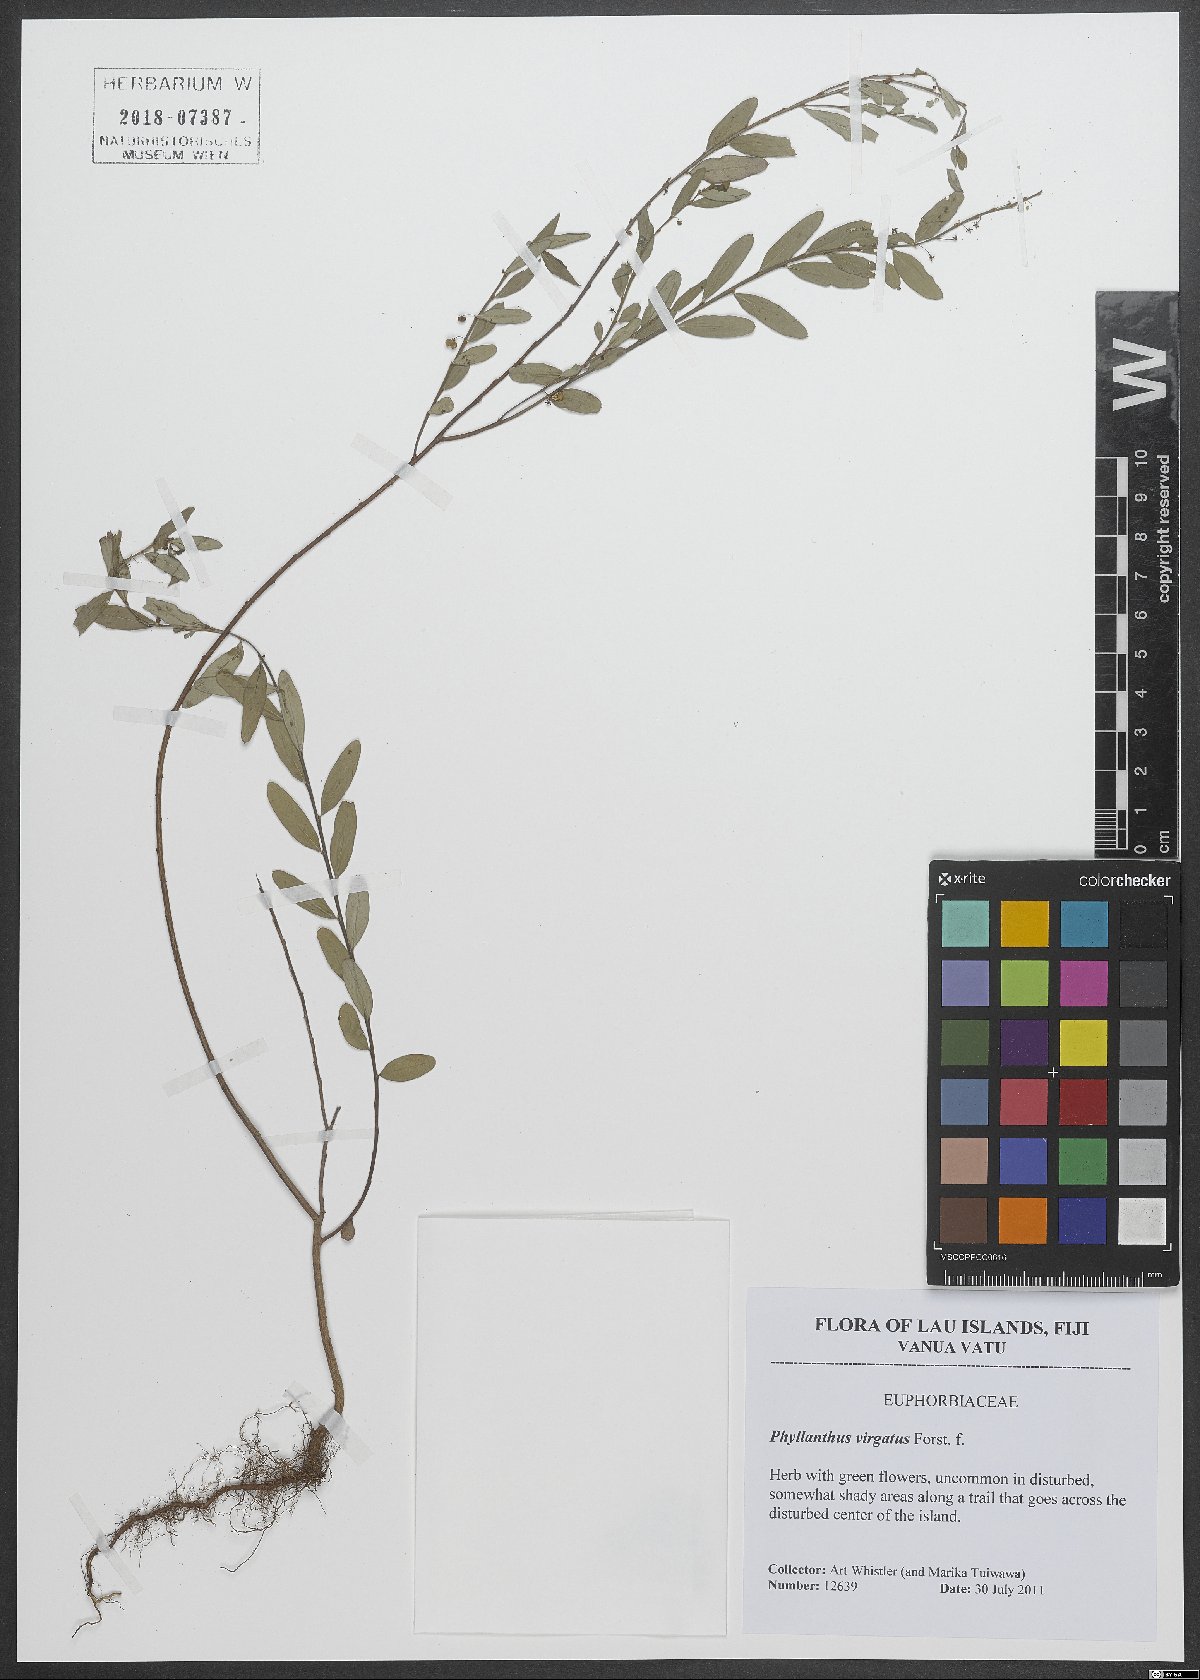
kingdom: Plantae
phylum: Tracheophyta
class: Magnoliopsida
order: Malpighiales
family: Phyllanthaceae
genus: Phyllanthus
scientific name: Phyllanthus virgatus
